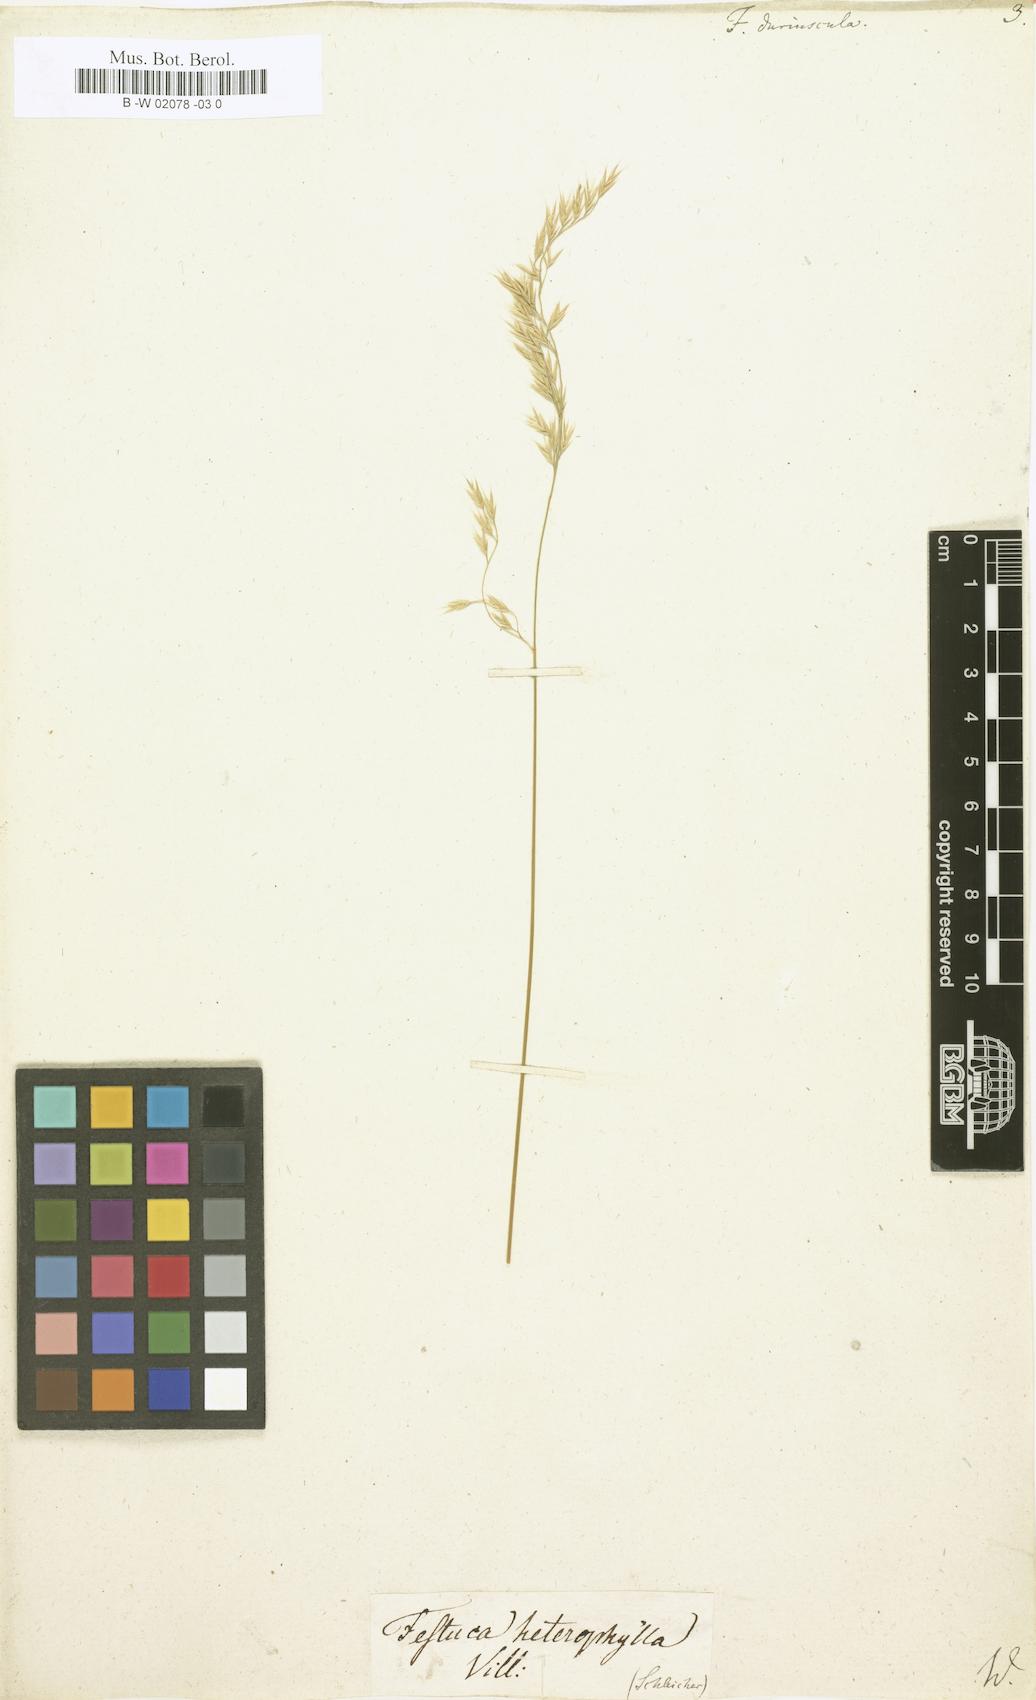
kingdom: Plantae
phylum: Tracheophyta
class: Liliopsida
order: Poales
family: Poaceae
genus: Festuca
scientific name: Festuca
